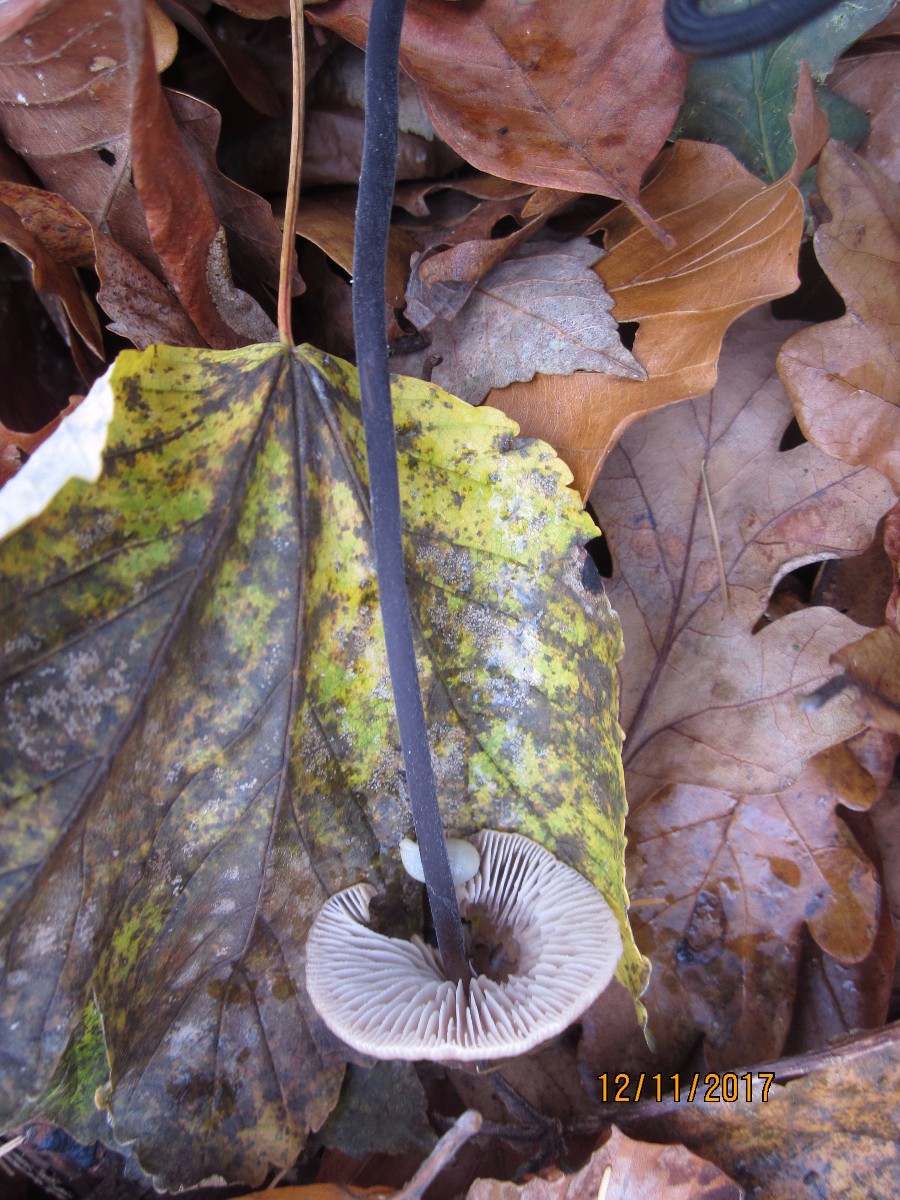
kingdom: Fungi
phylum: Basidiomycota
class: Agaricomycetes
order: Agaricales
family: Omphalotaceae
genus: Mycetinis
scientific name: Mycetinis alliaceus
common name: stor løghat
